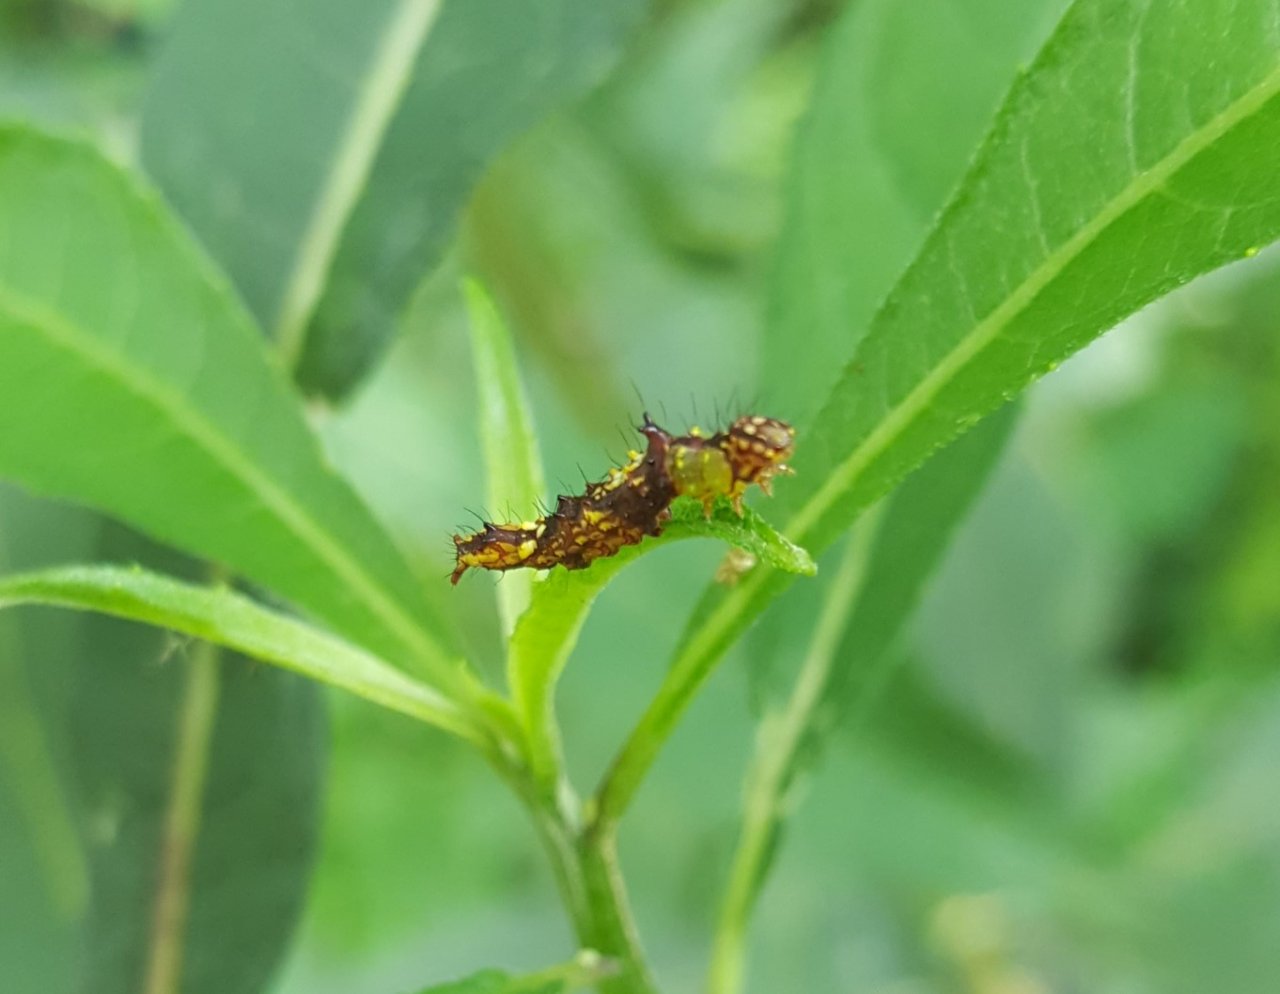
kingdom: Animalia
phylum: Arthropoda
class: Insecta
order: Lepidoptera
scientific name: Lepidoptera
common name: Butterflies
